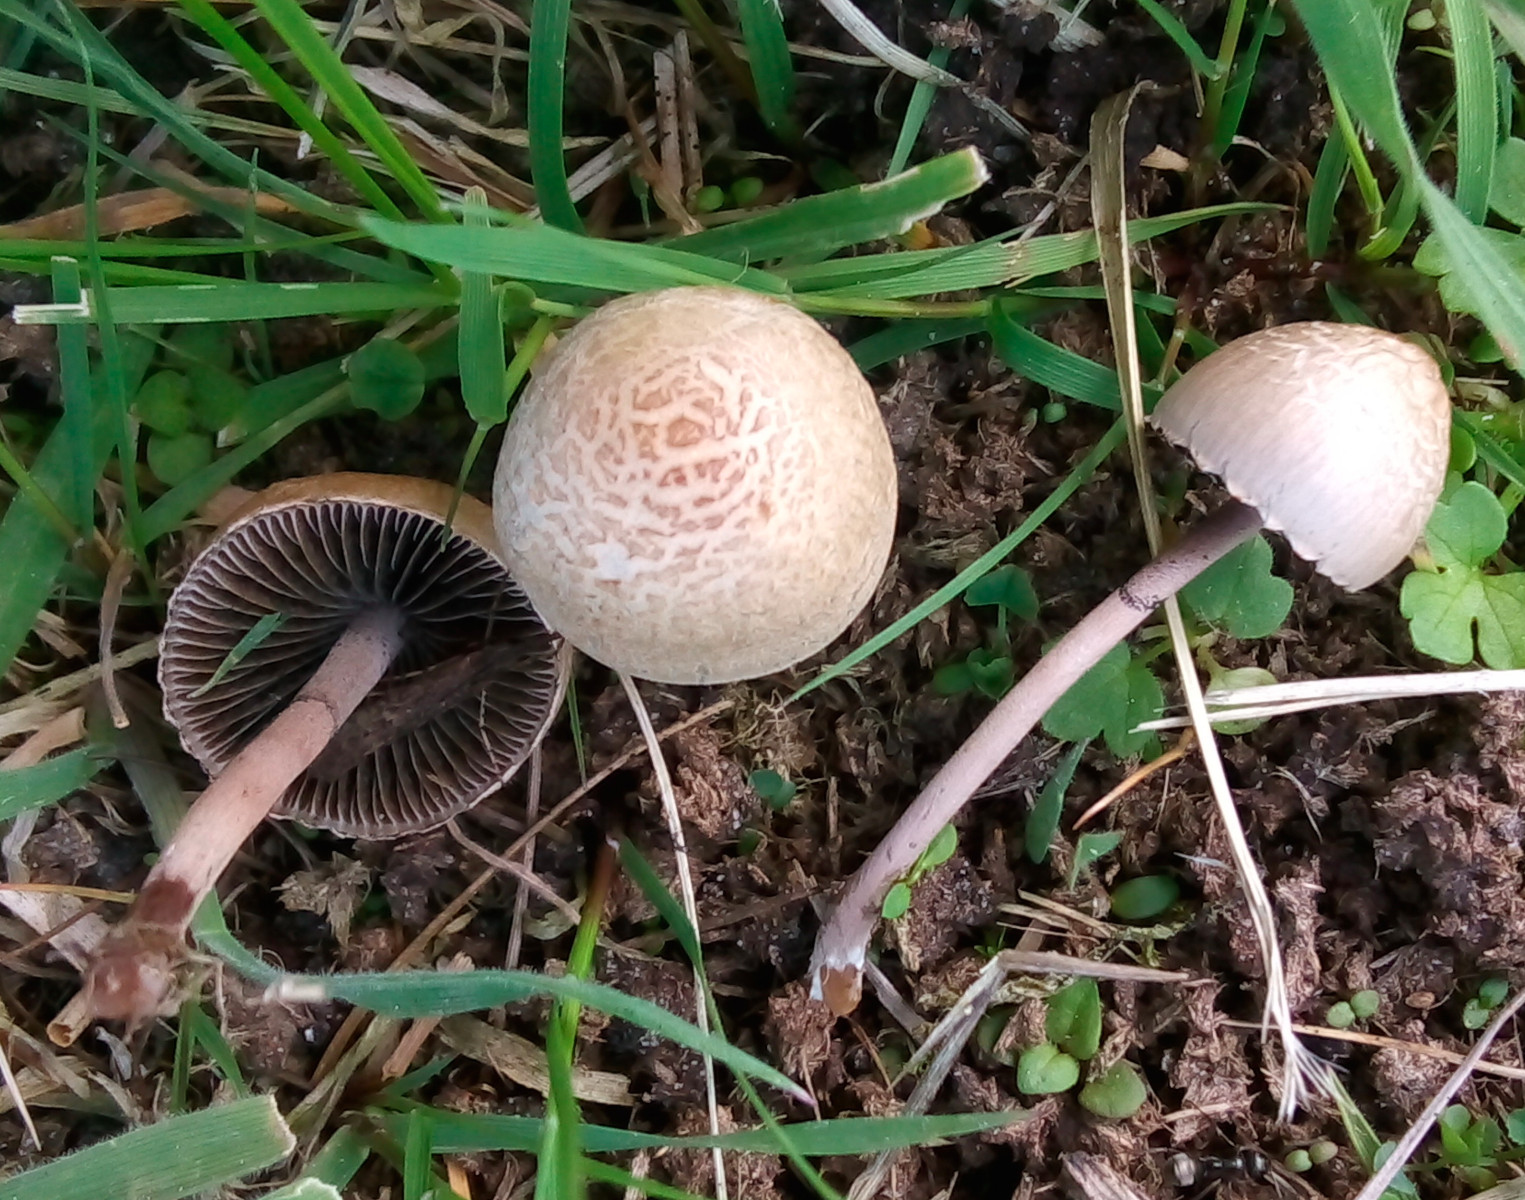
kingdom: Fungi
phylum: Basidiomycota
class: Agaricomycetes
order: Agaricales
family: Bolbitiaceae
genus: Panaeolus
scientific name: Panaeolus papilionaceus
